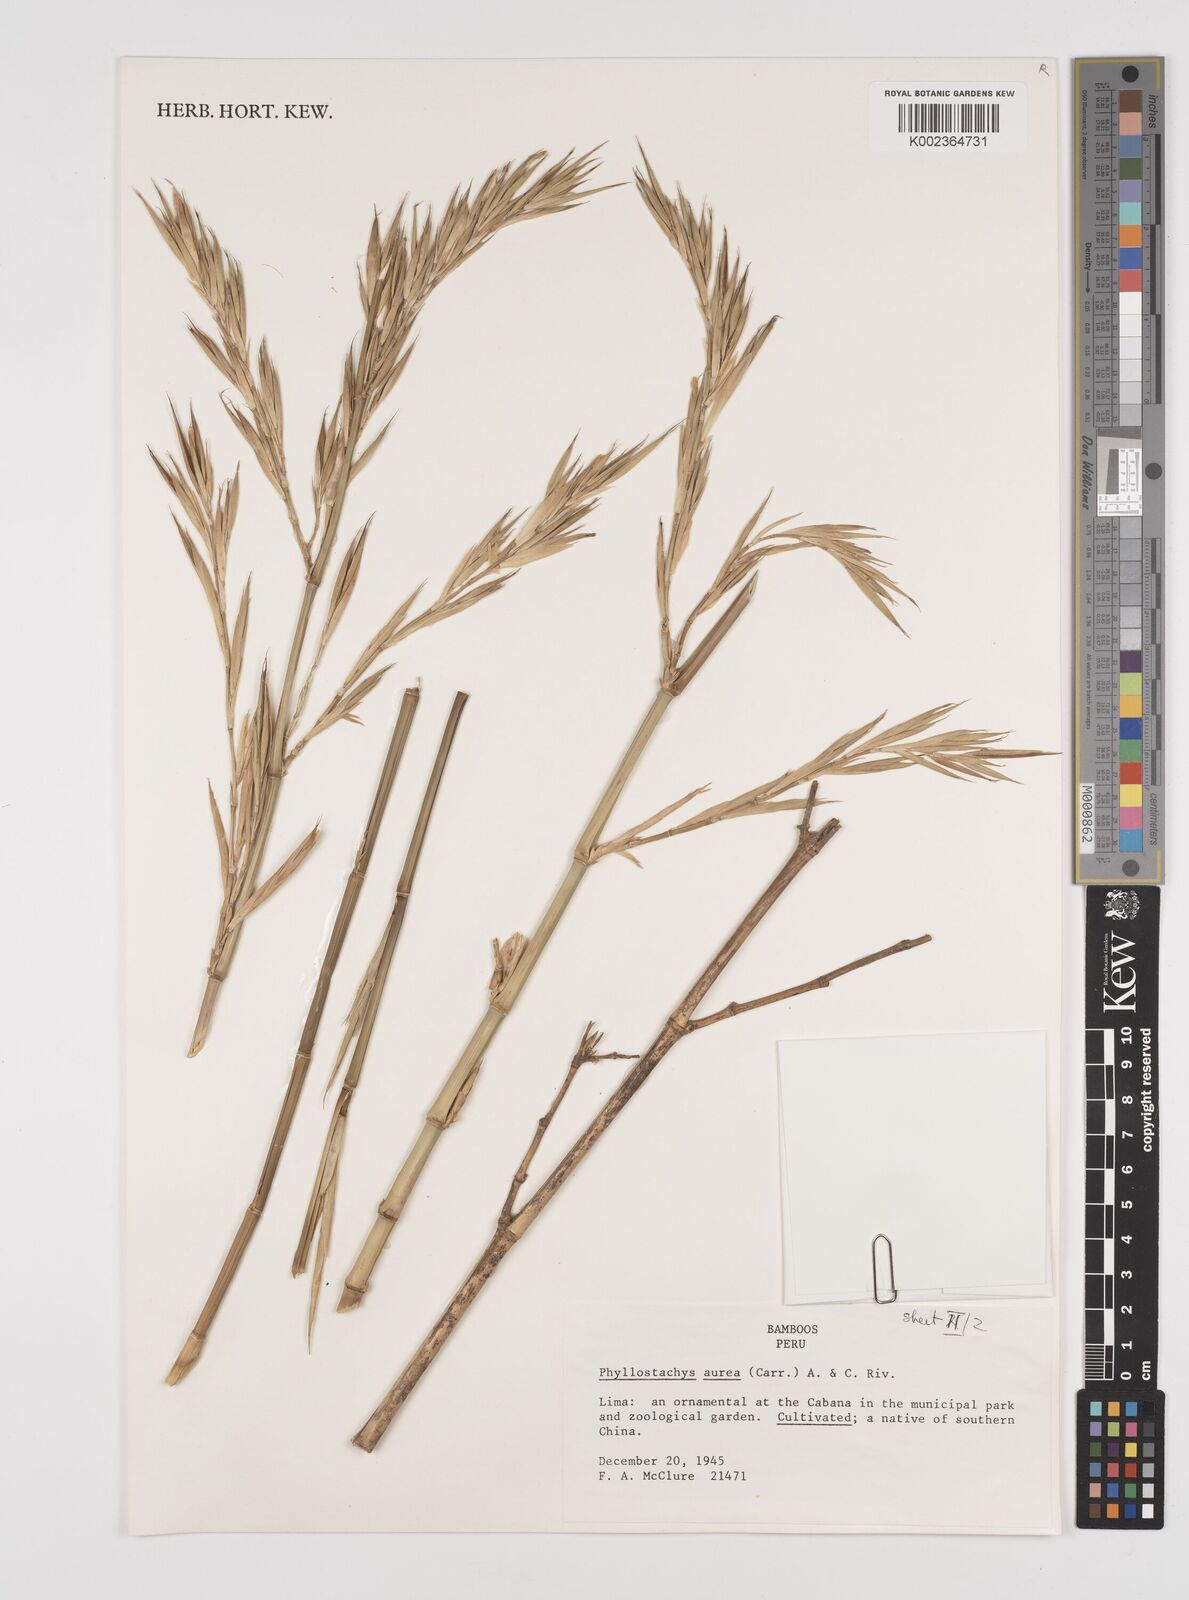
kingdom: Plantae
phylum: Tracheophyta
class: Liliopsida
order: Poales
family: Poaceae
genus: Phyllostachys
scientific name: Phyllostachys aurea
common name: Golden bamboo
